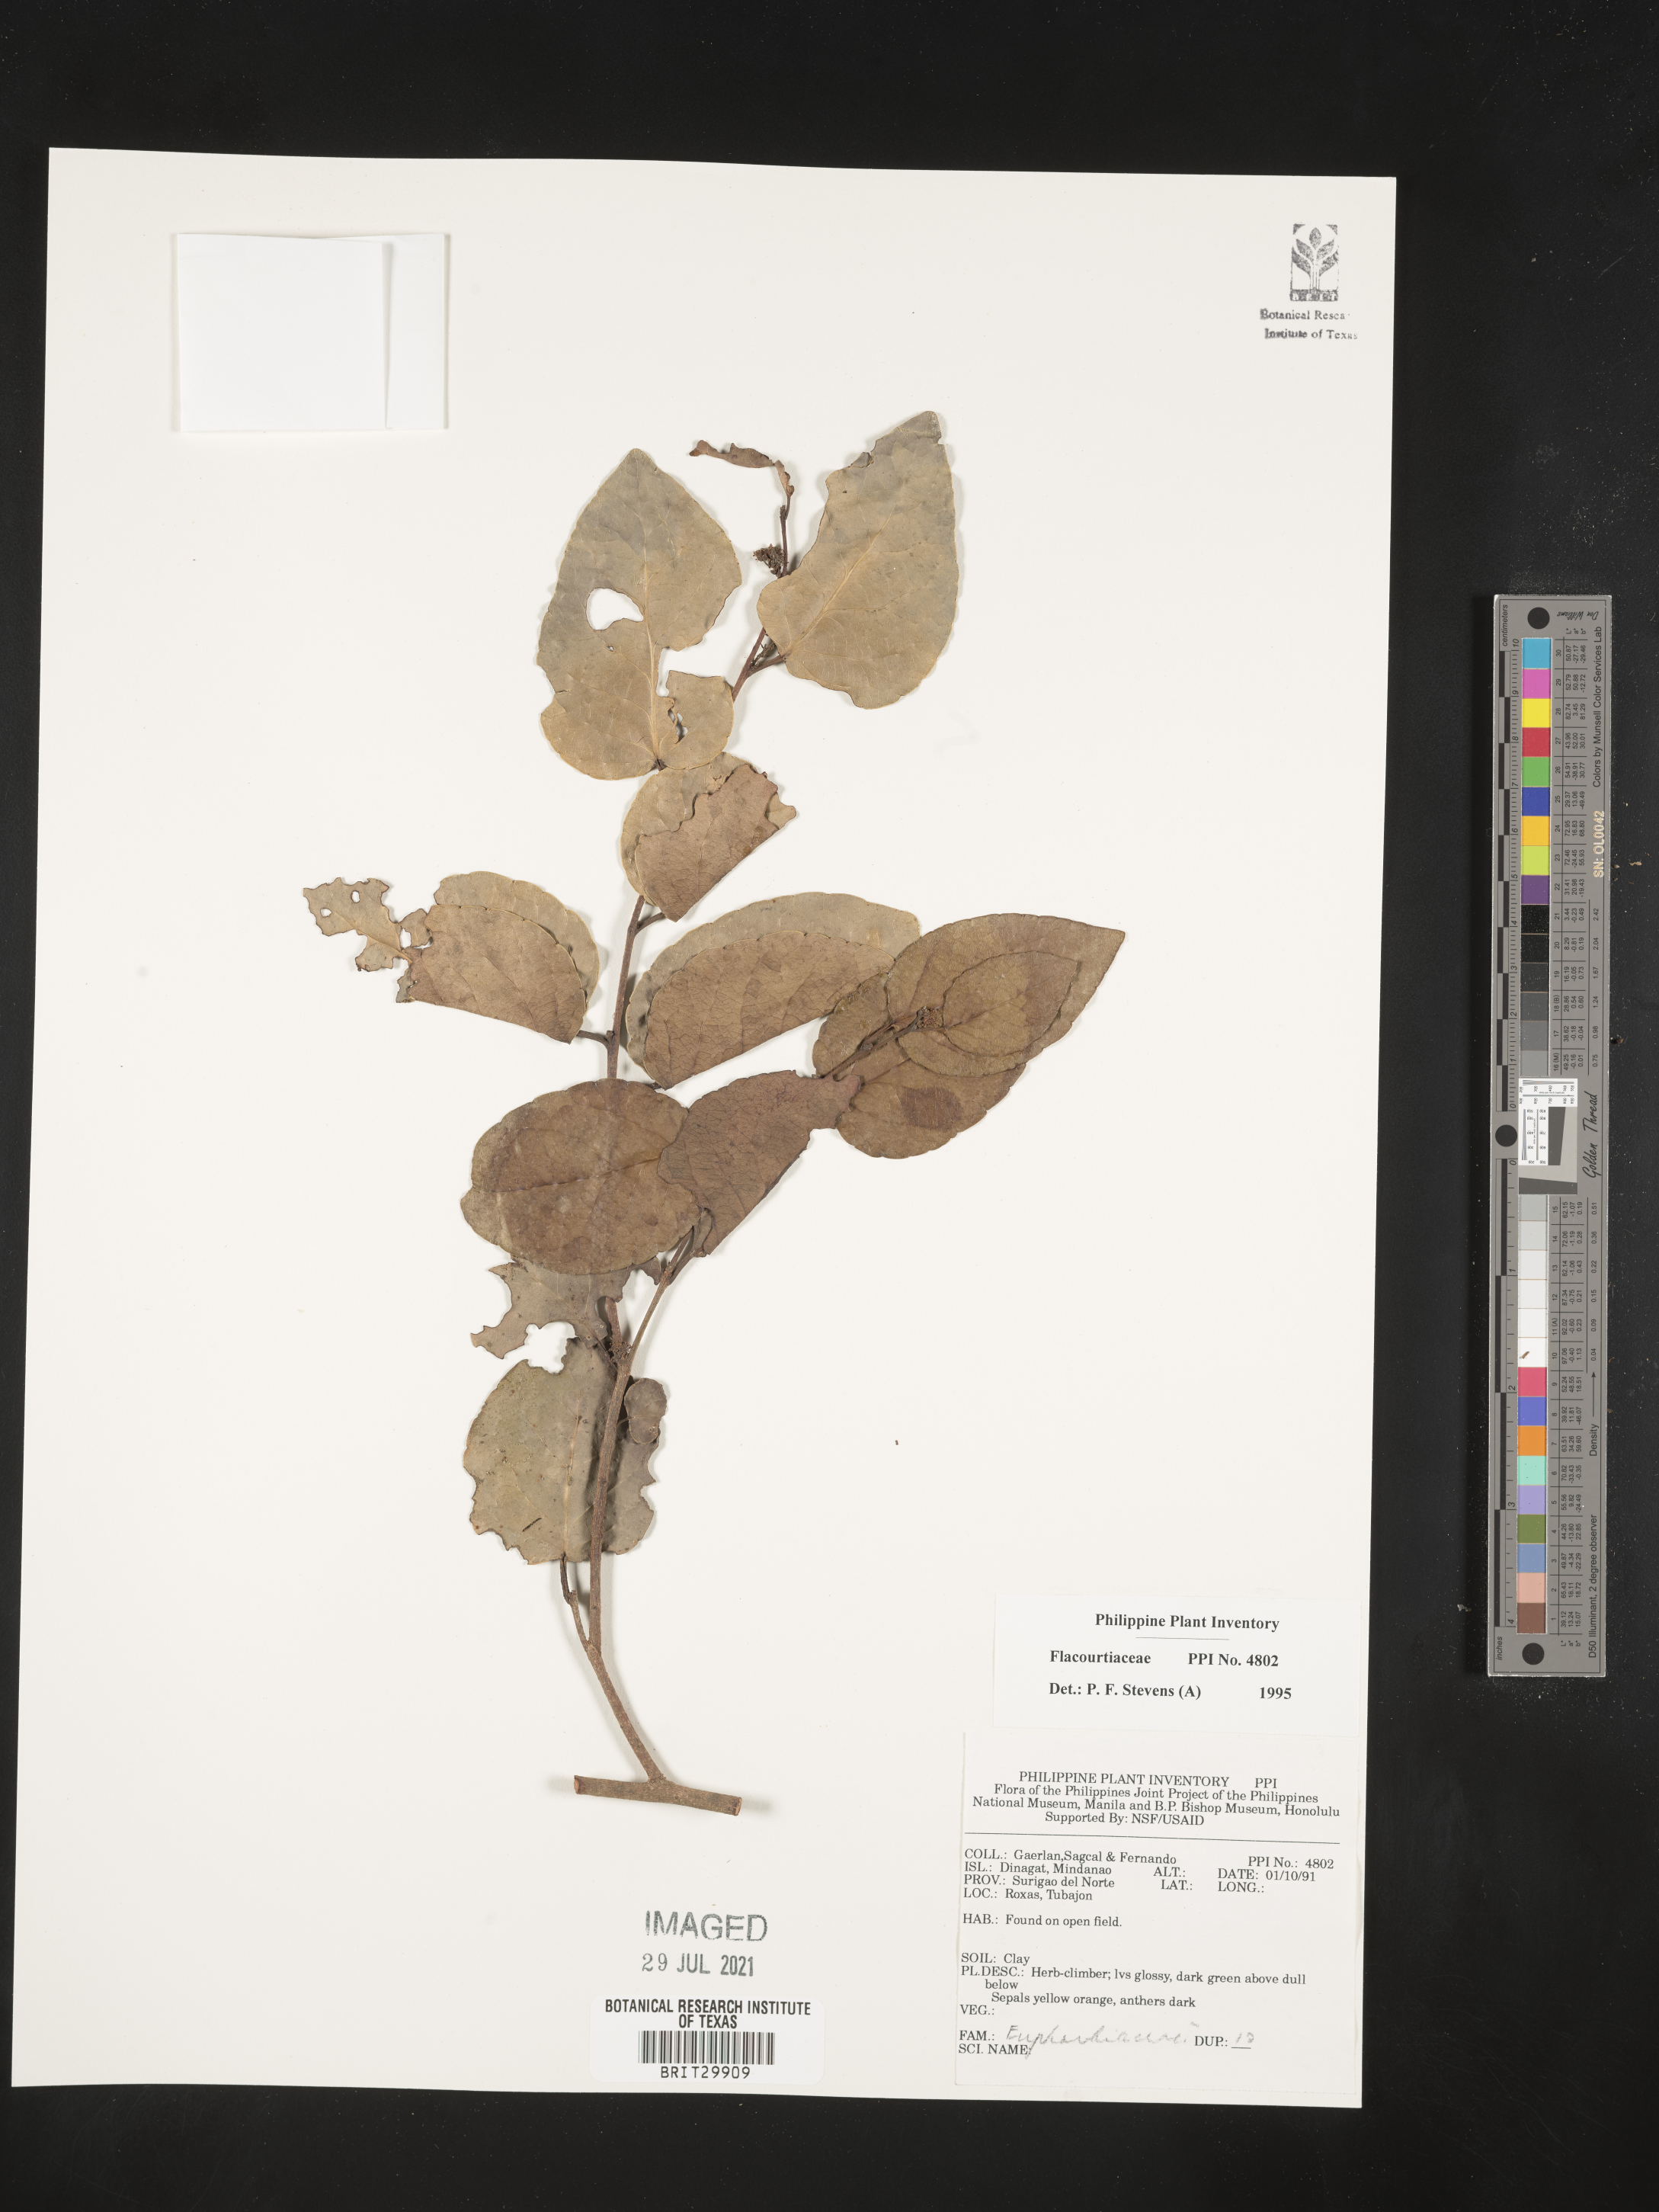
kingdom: Plantae
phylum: Tracheophyta
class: Magnoliopsida
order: Malpighiales
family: Flacourtiaceae
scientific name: Flacourtiaceae
